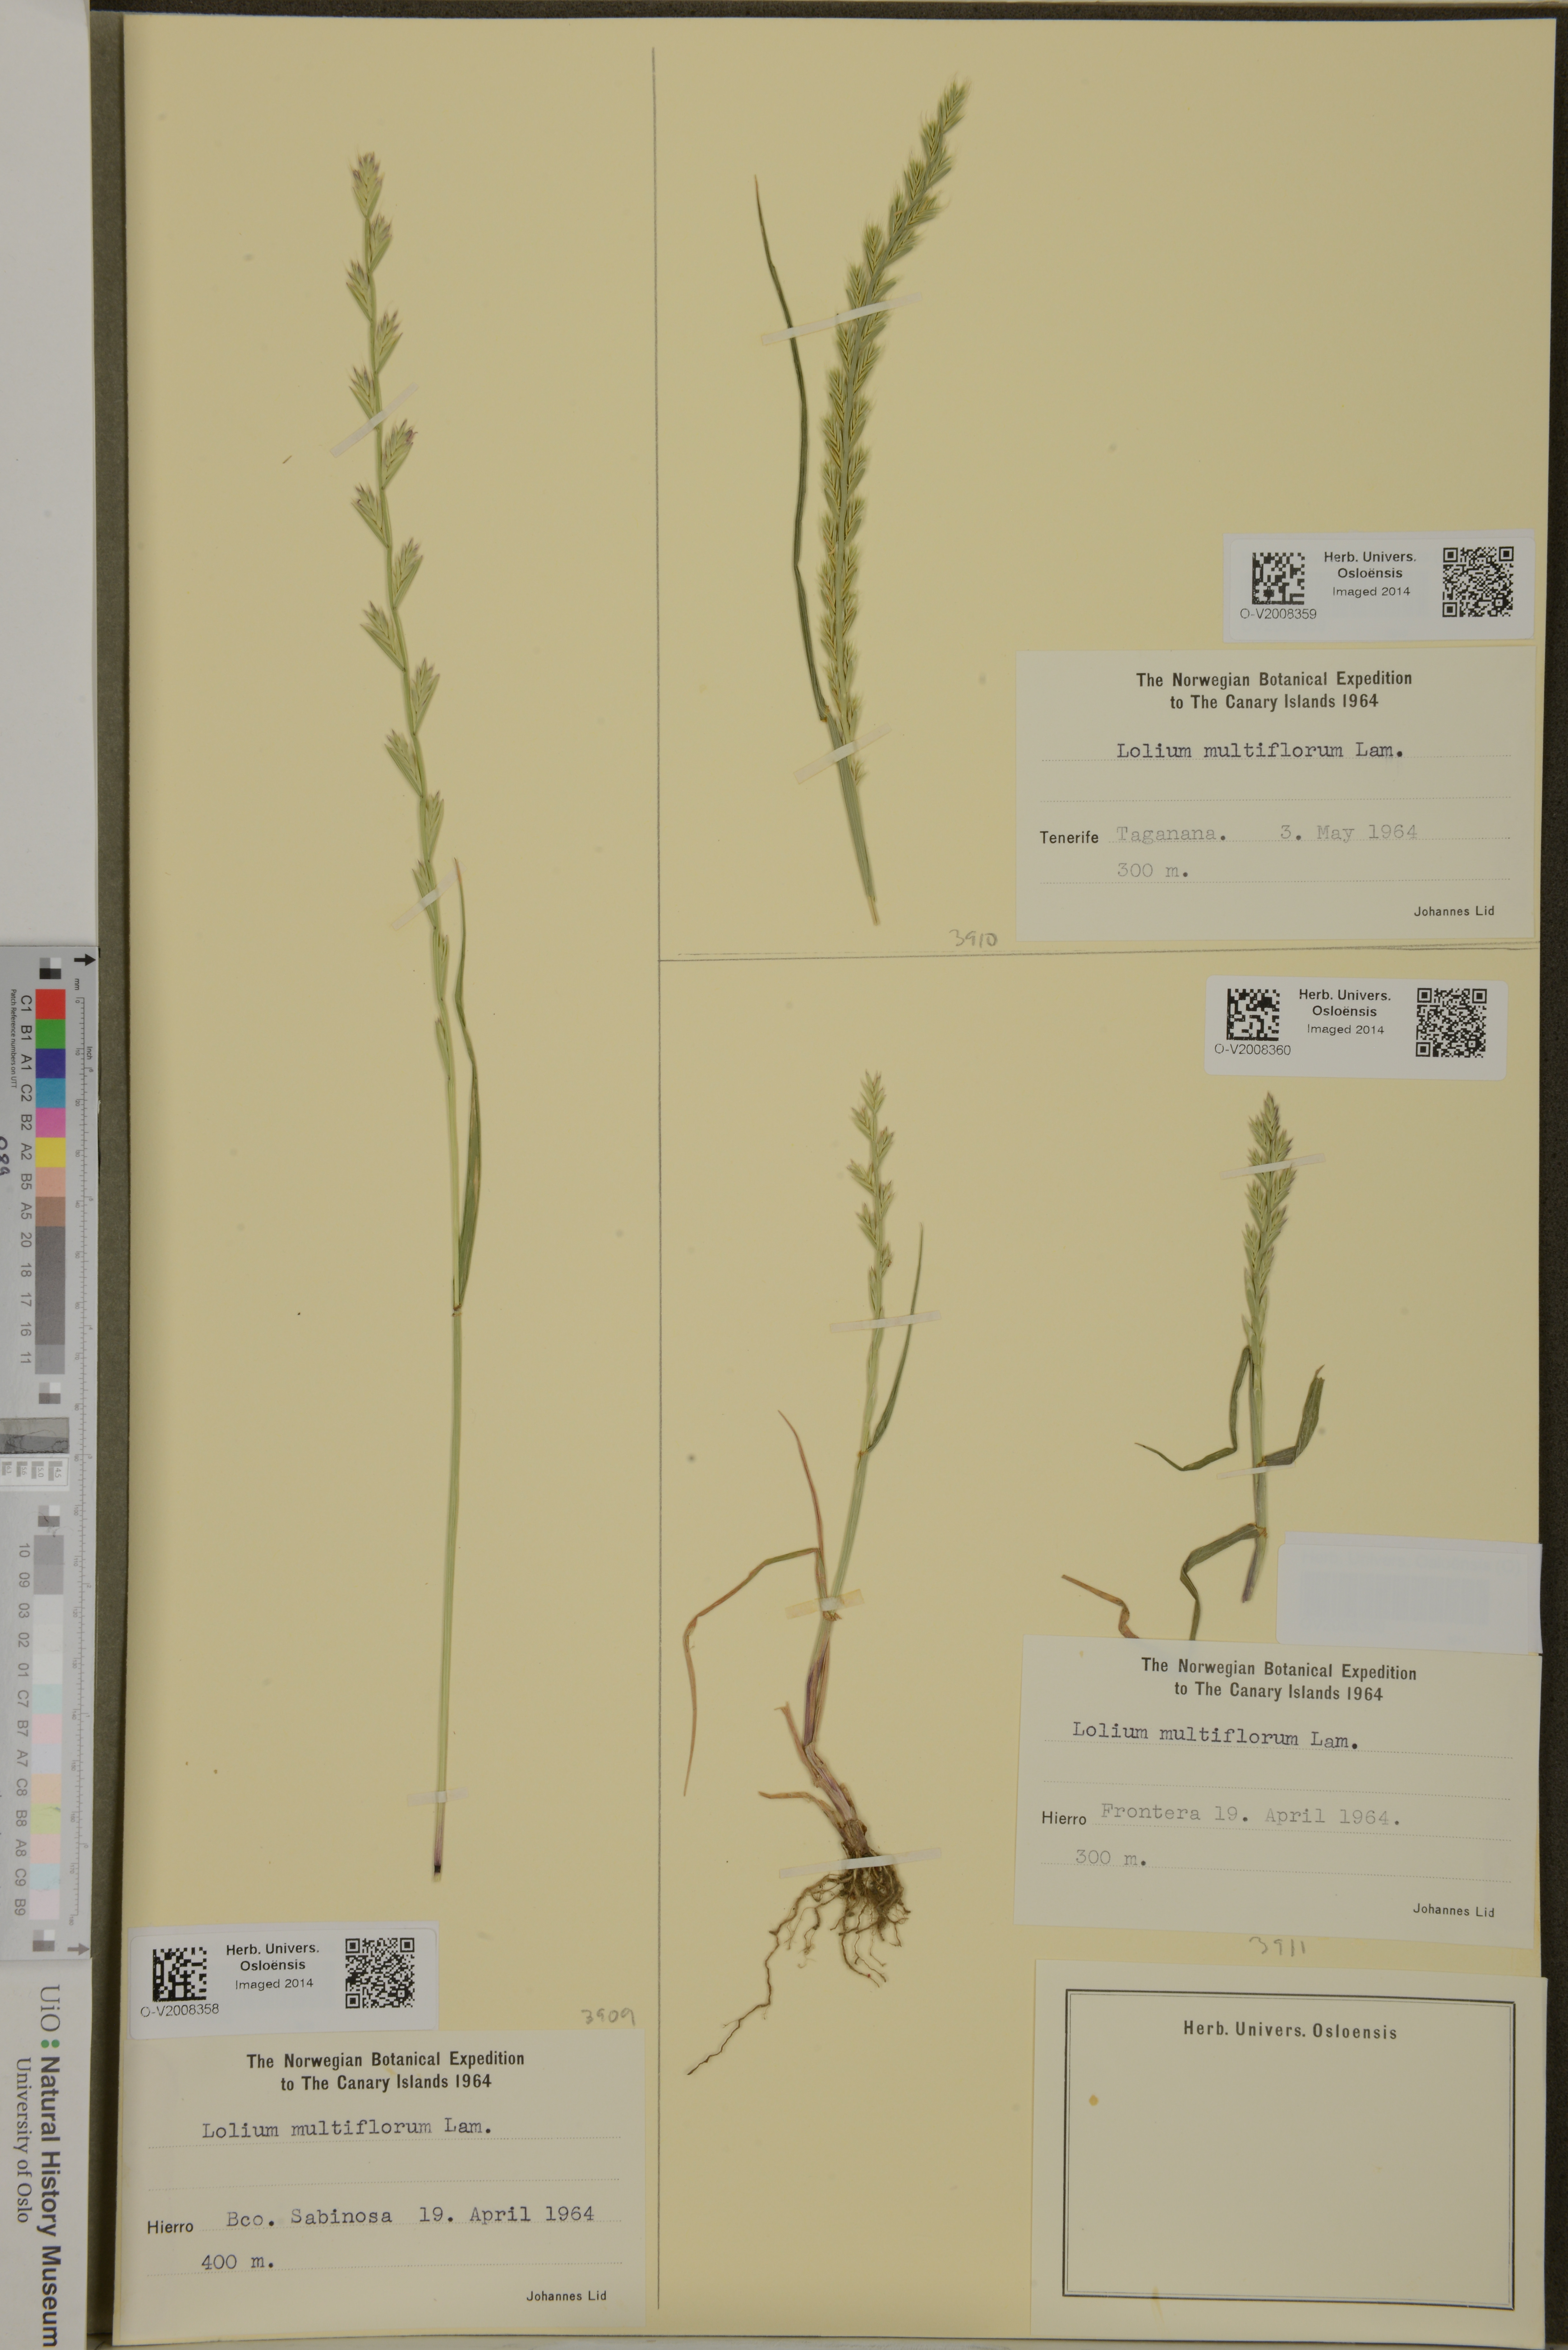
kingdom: Plantae
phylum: Tracheophyta
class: Liliopsida
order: Poales
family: Poaceae
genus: Lolium
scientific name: Lolium multiflorum
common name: Annual ryegrass
